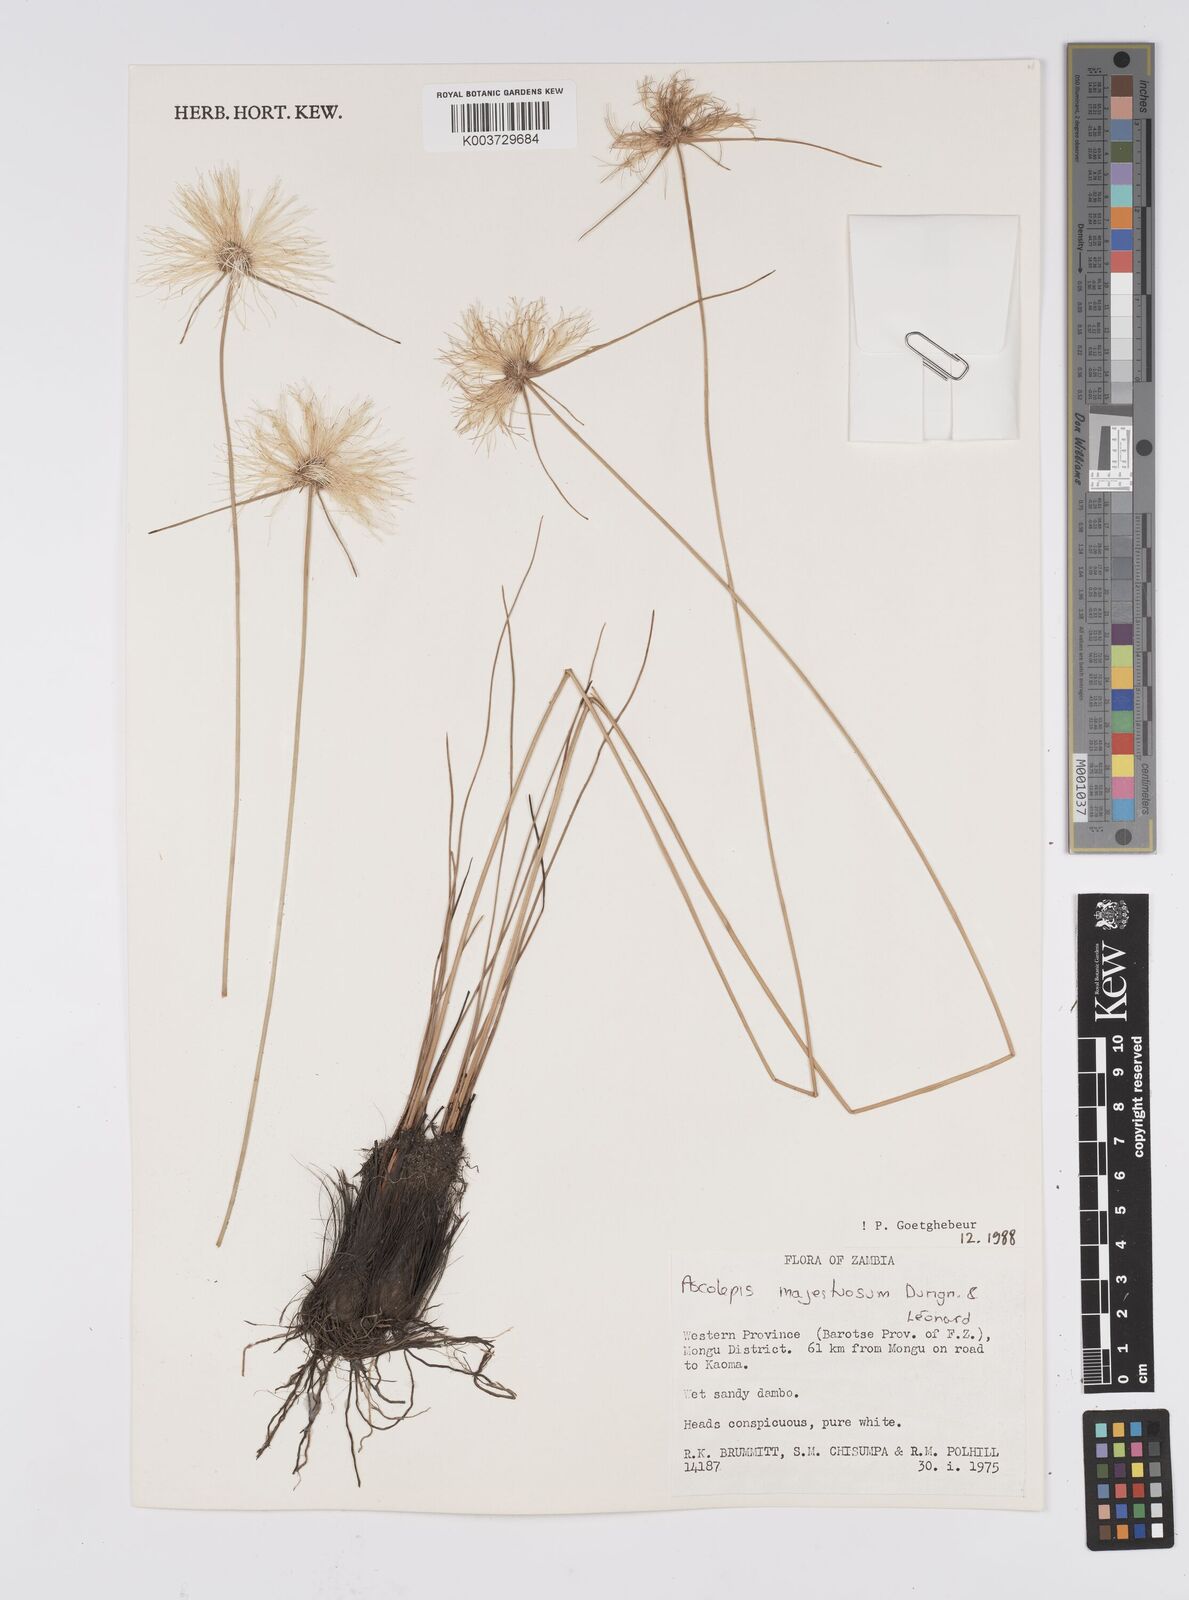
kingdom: Plantae
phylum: Tracheophyta
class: Liliopsida
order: Poales
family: Cyperaceae
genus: Cyperus
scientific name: Cyperus majestuosus
